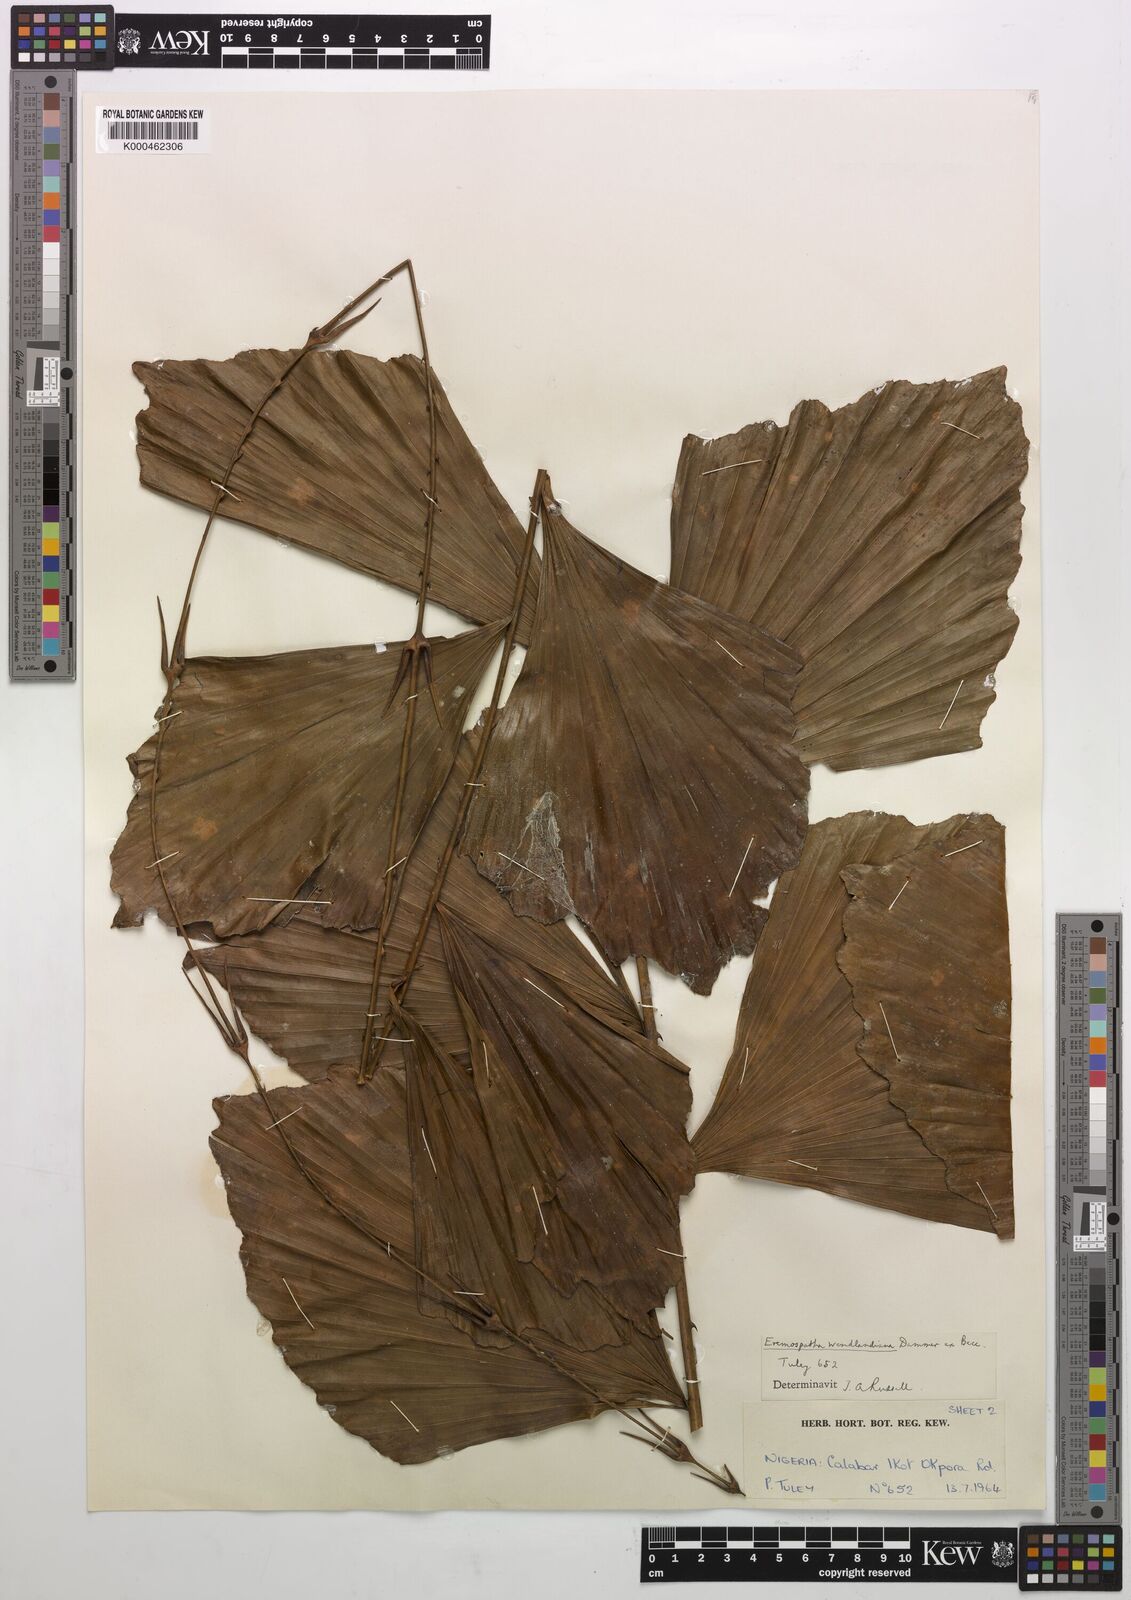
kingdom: Plantae
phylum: Tracheophyta
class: Liliopsida
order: Arecales
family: Arecaceae
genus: Eremospatha
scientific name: Eremospatha wendlandiana
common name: Rattan
